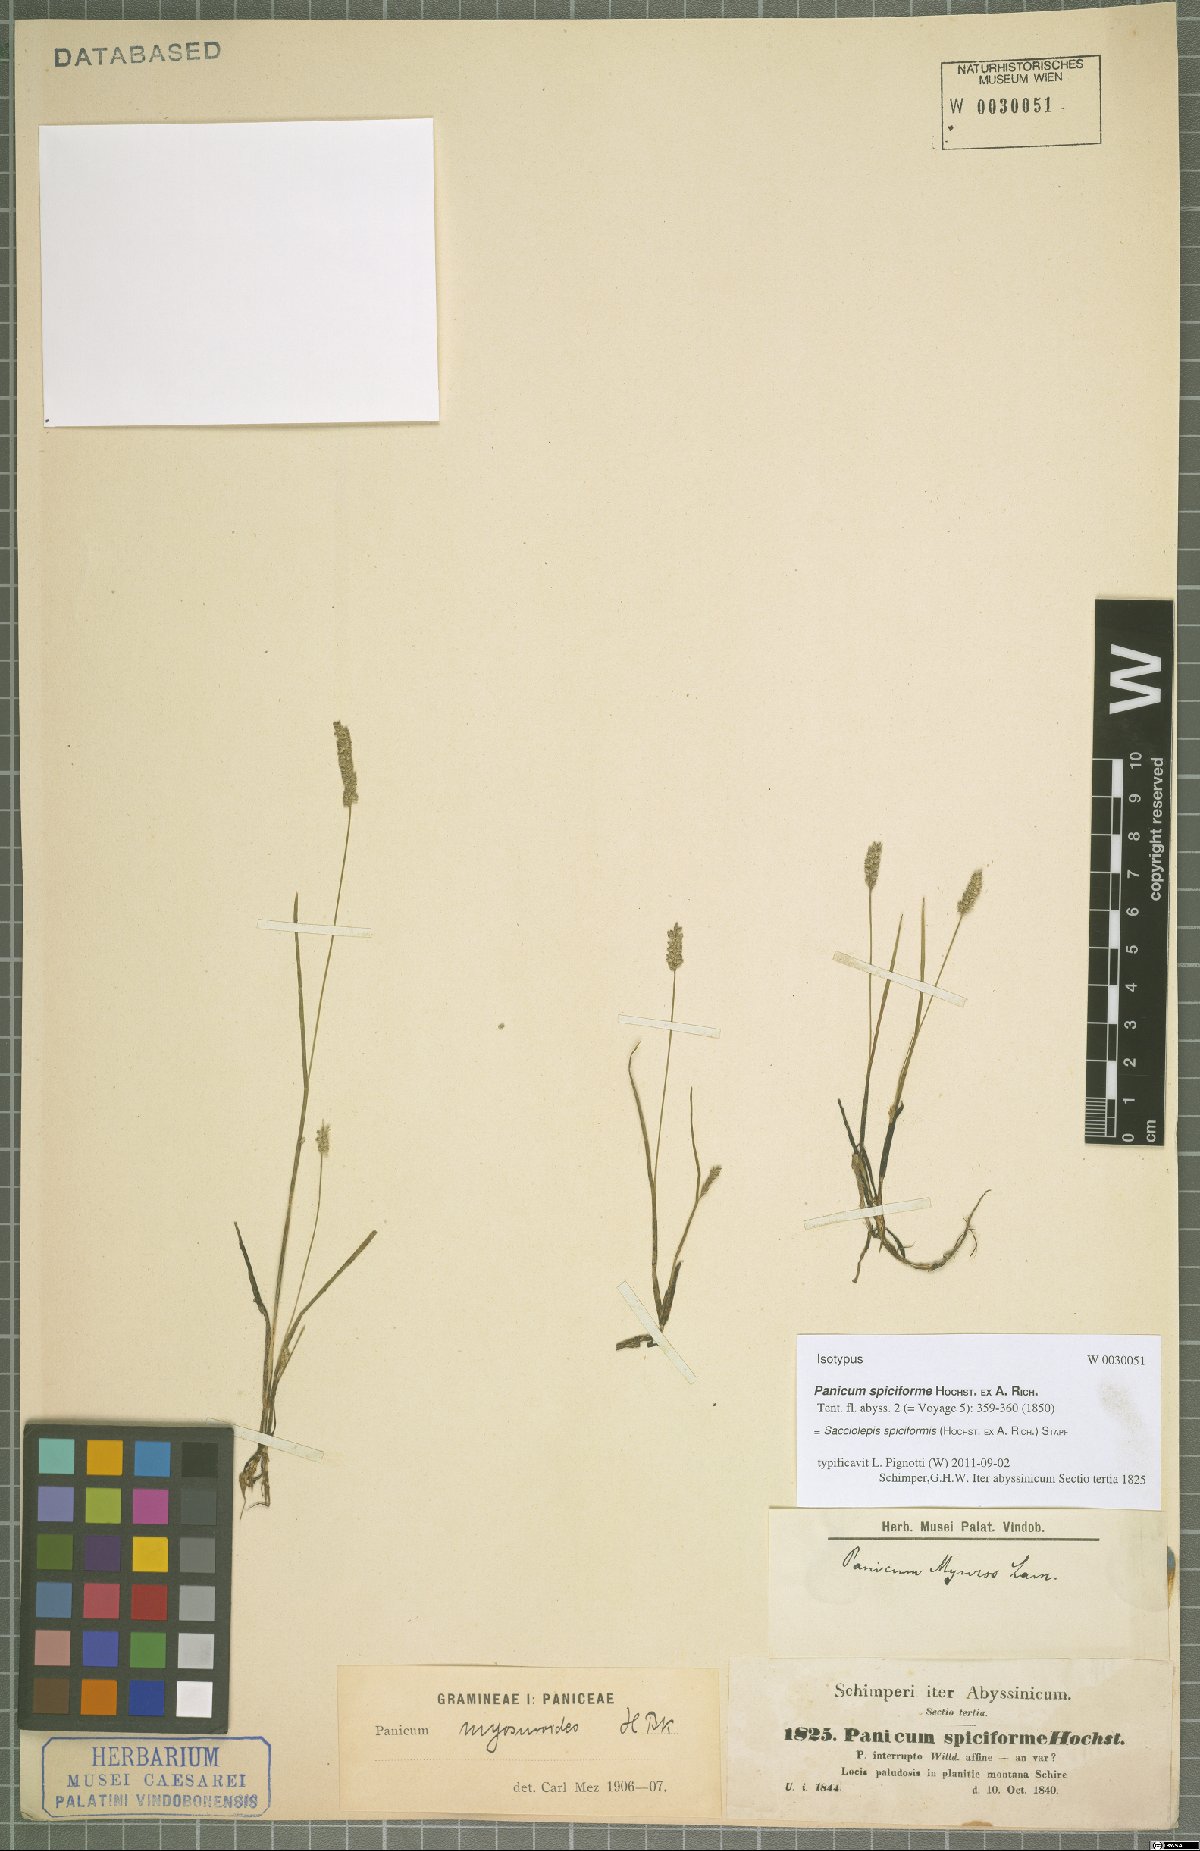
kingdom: Plantae
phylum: Tracheophyta
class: Liliopsida
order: Poales
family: Poaceae
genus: Sacciolepis
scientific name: Sacciolepis myosuroides
